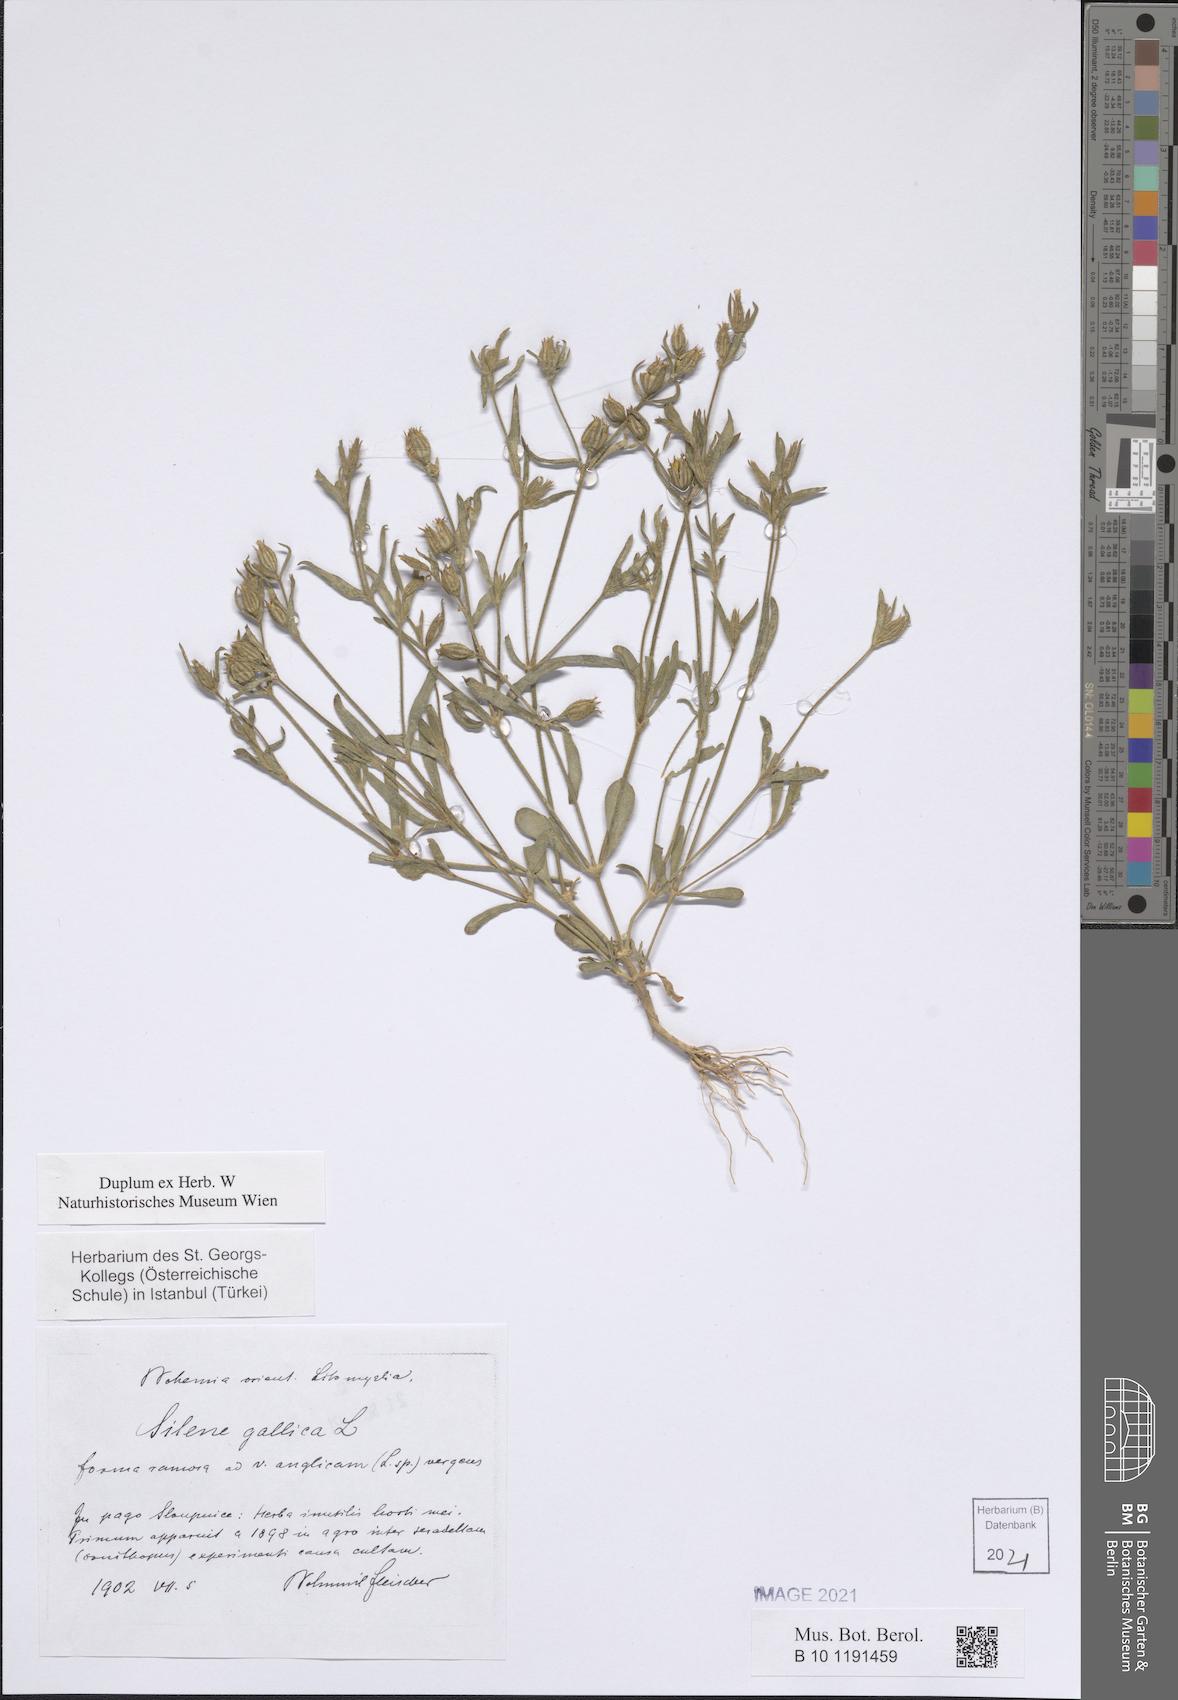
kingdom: Plantae
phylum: Tracheophyta
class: Magnoliopsida
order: Caryophyllales
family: Caryophyllaceae
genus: Silene
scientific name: Silene gallica
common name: Small-flowered catchfly
